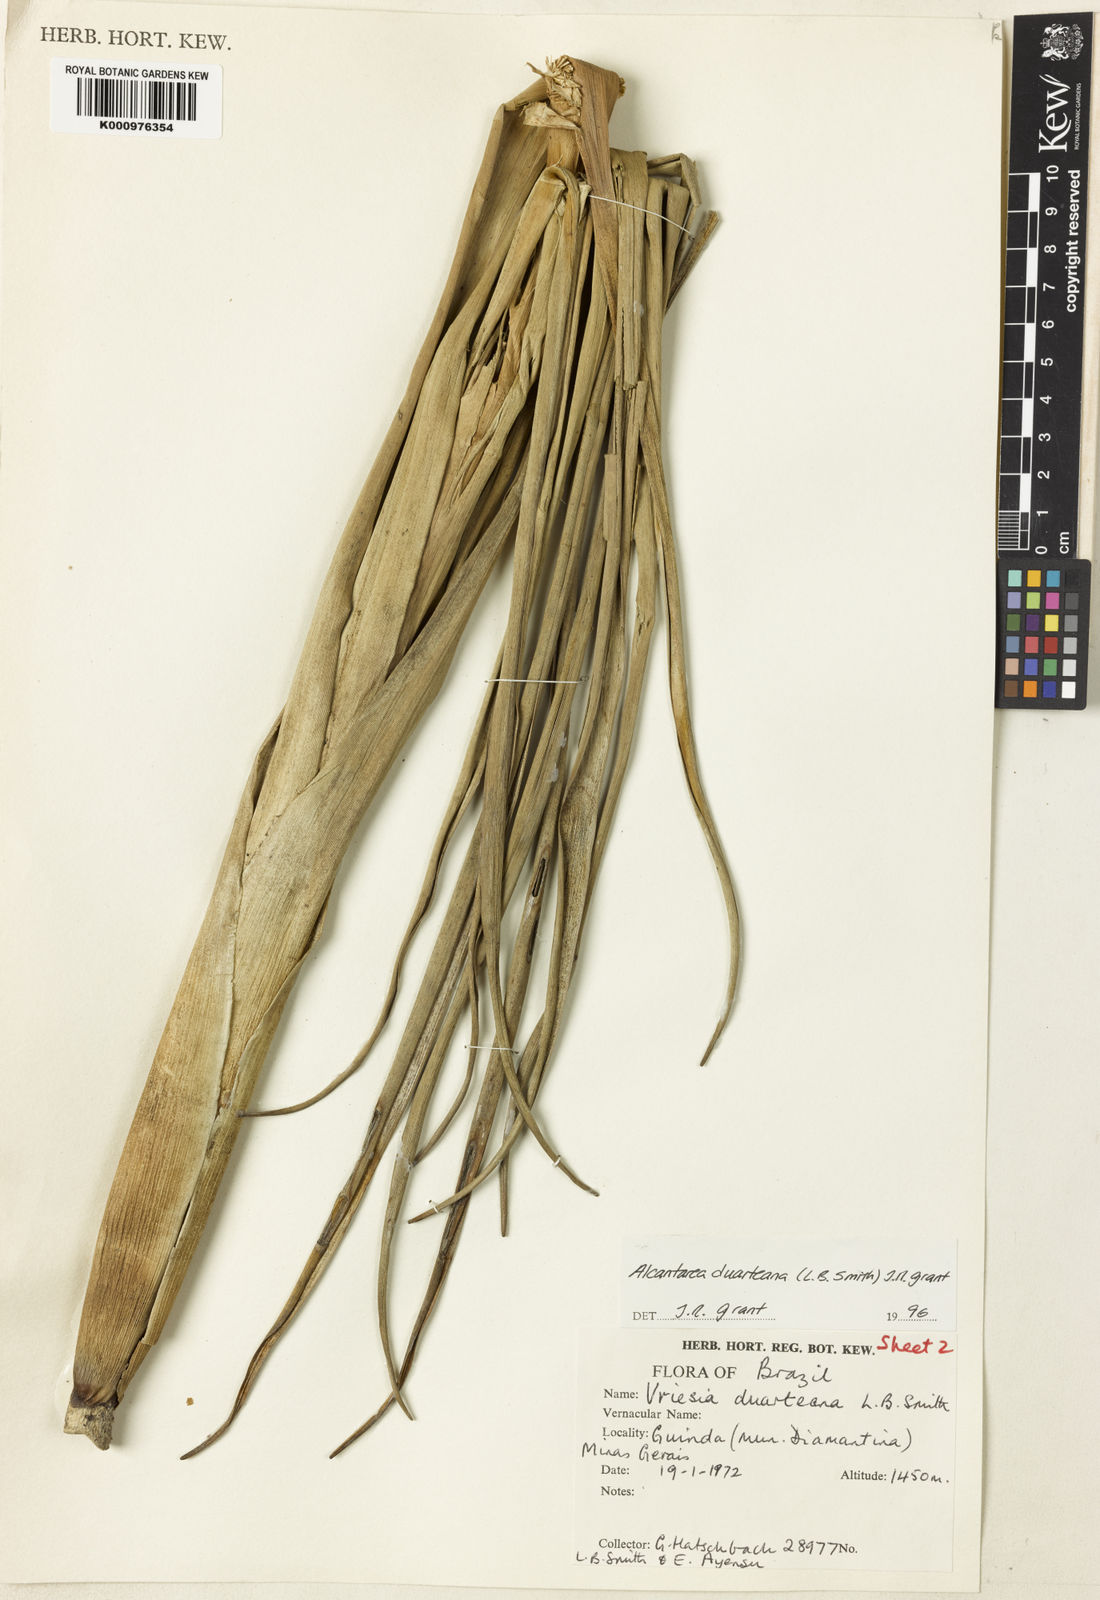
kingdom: Plantae
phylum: Tracheophyta
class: Liliopsida
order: Poales
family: Bromeliaceae
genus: Alcantarea
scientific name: Alcantarea duarteana
